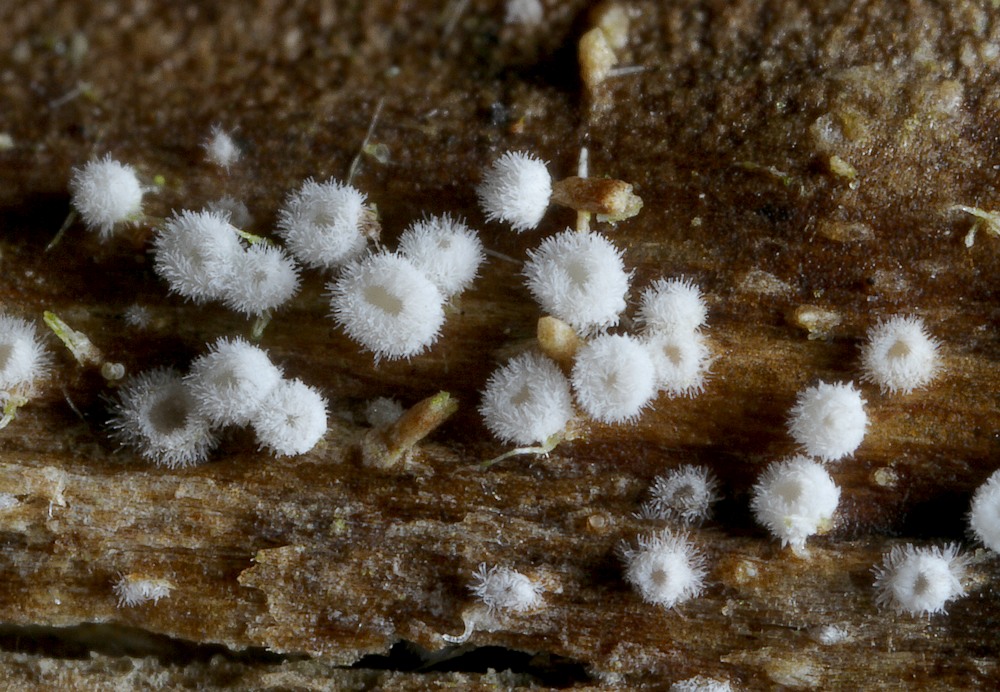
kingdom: Fungi
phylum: Basidiomycota
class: Agaricomycetes
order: Agaricales
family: Niaceae
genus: Lachnella
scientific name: Lachnella villosa
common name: hvid frynserede
